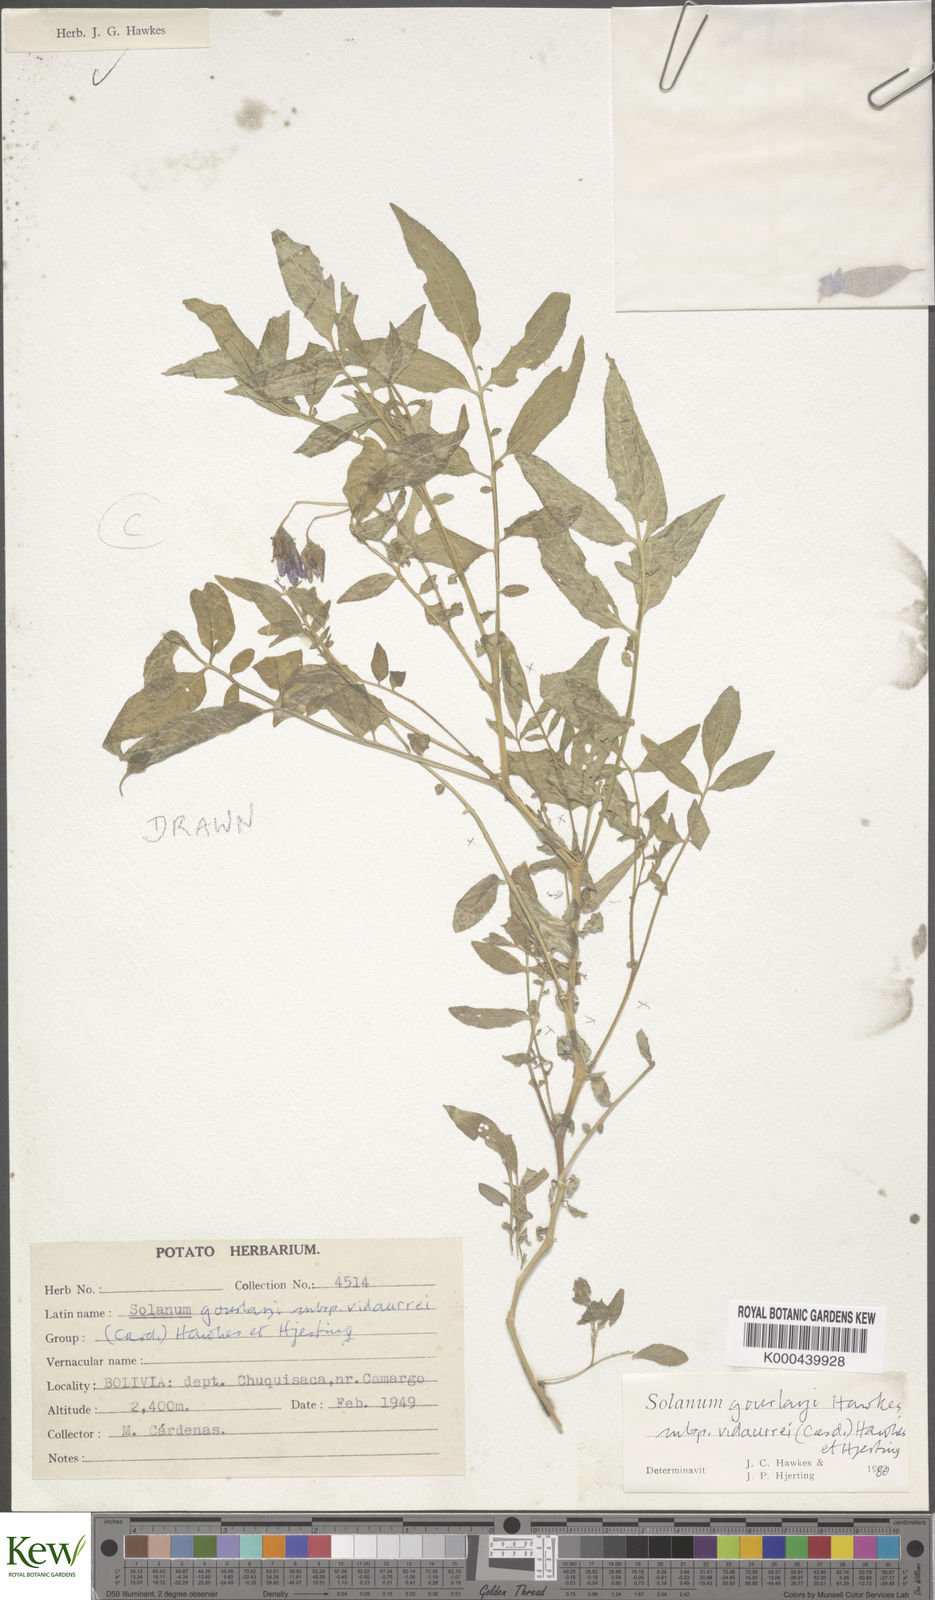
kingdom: Plantae
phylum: Tracheophyta
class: Magnoliopsida
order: Solanales
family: Solanaceae
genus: Solanum
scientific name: Solanum brevicaule
